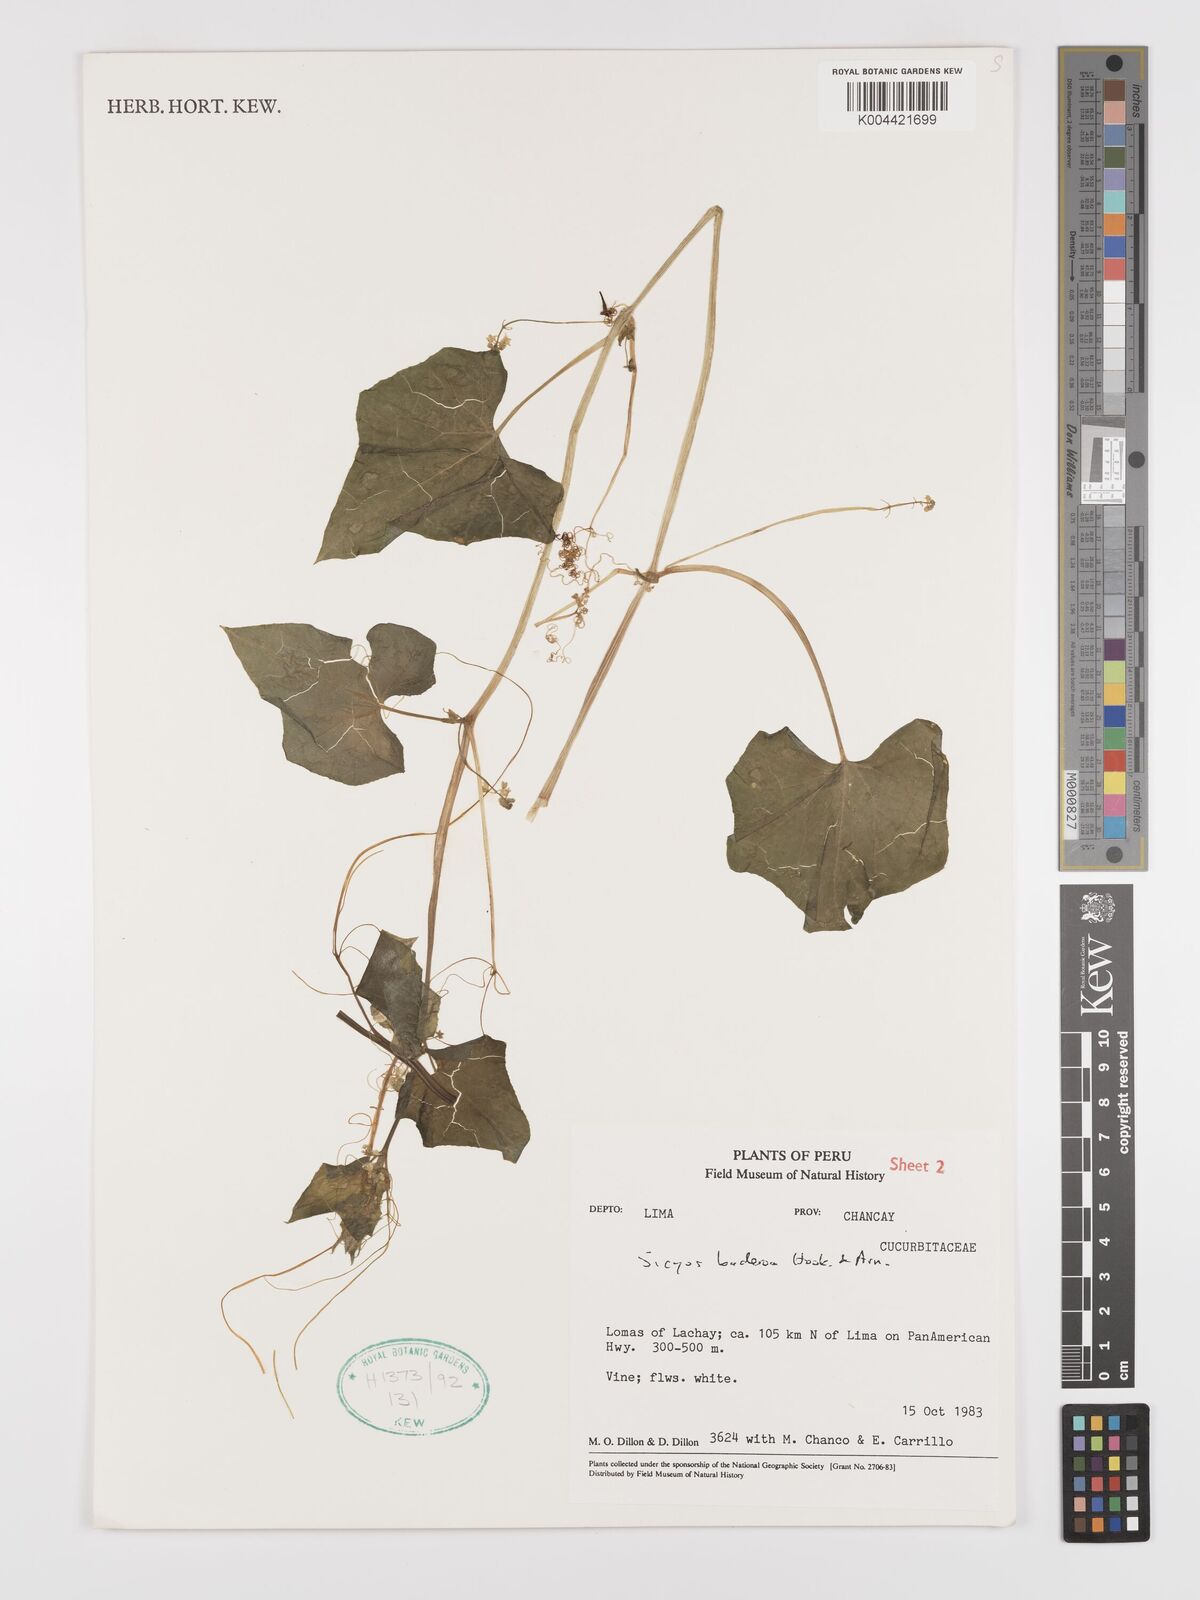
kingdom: Plantae
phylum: Tracheophyta
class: Magnoliopsida
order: Cucurbitales
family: Cucurbitaceae
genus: Sicyos
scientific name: Sicyos baderoa
